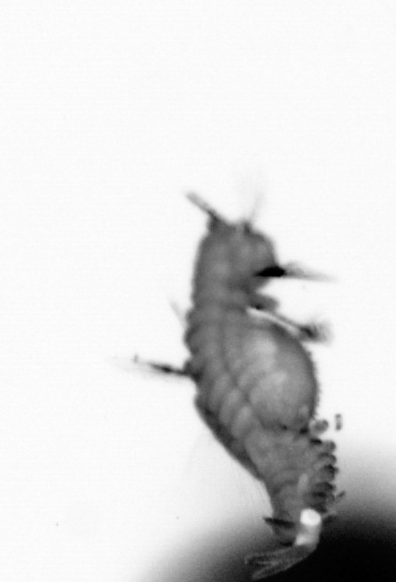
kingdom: Animalia
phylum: Annelida
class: Polychaeta
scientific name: Polychaeta
